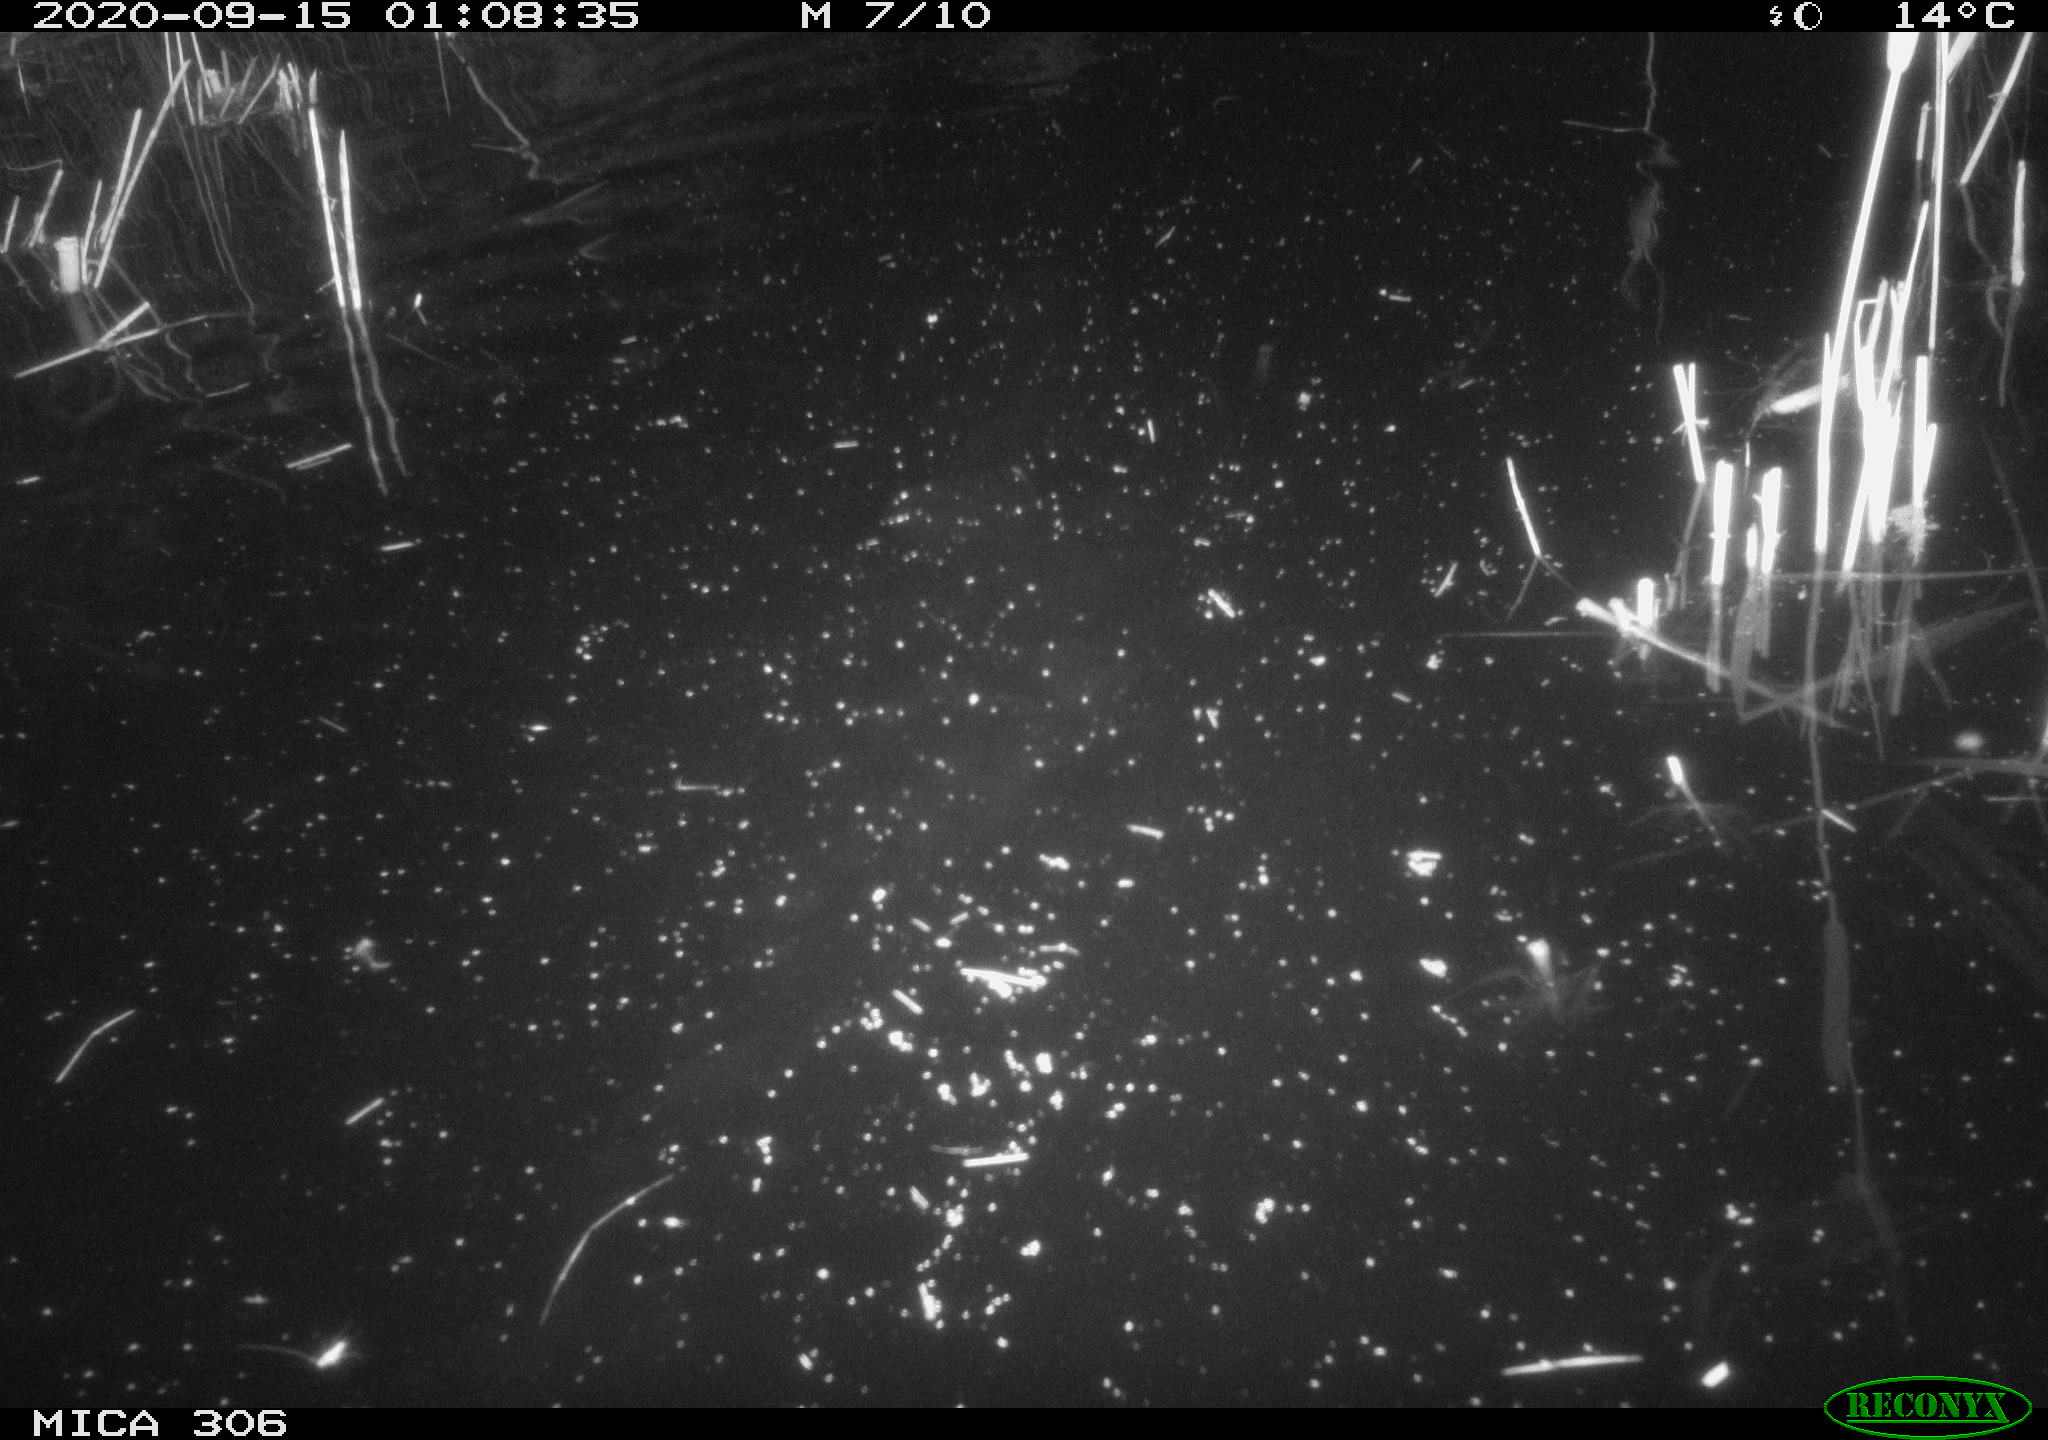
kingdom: Animalia
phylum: Chordata
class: Mammalia
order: Rodentia
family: Cricetidae
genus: Ondatra
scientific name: Ondatra zibethicus
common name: Muskrat
